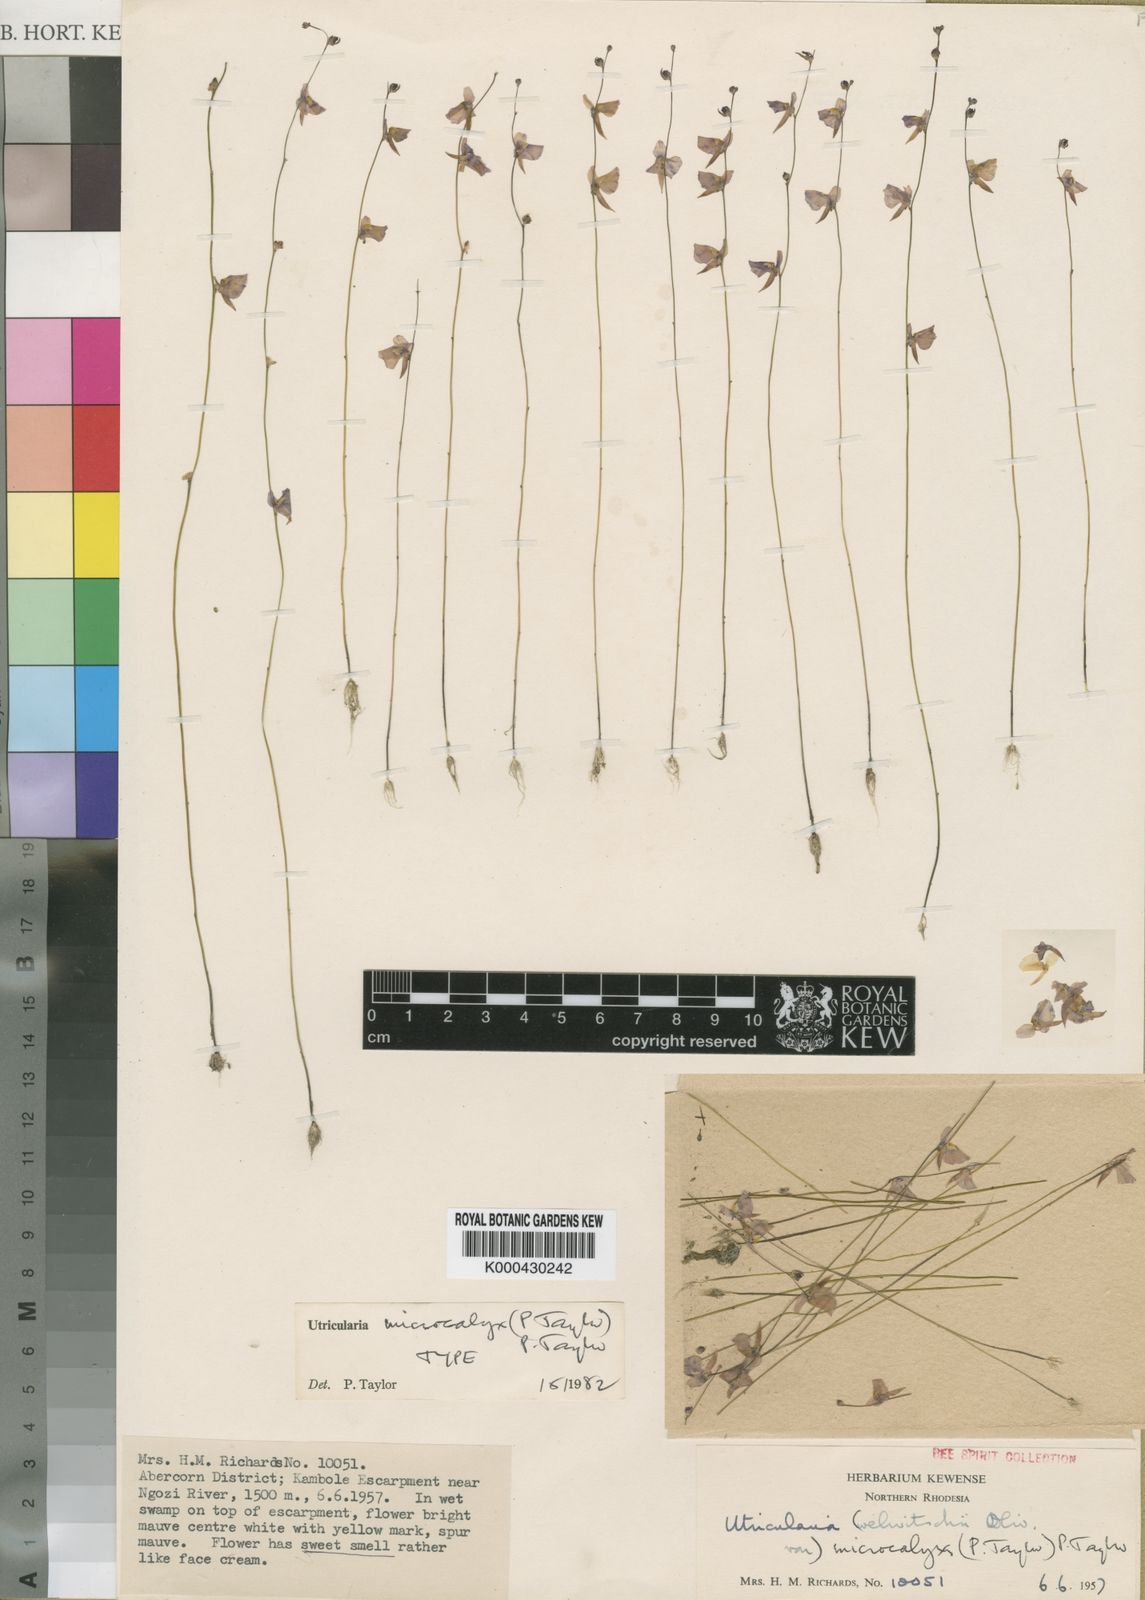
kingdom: Plantae
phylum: Tracheophyta
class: Magnoliopsida
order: Lamiales
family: Lentibulariaceae
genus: Utricularia
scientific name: Utricularia microcalyx
